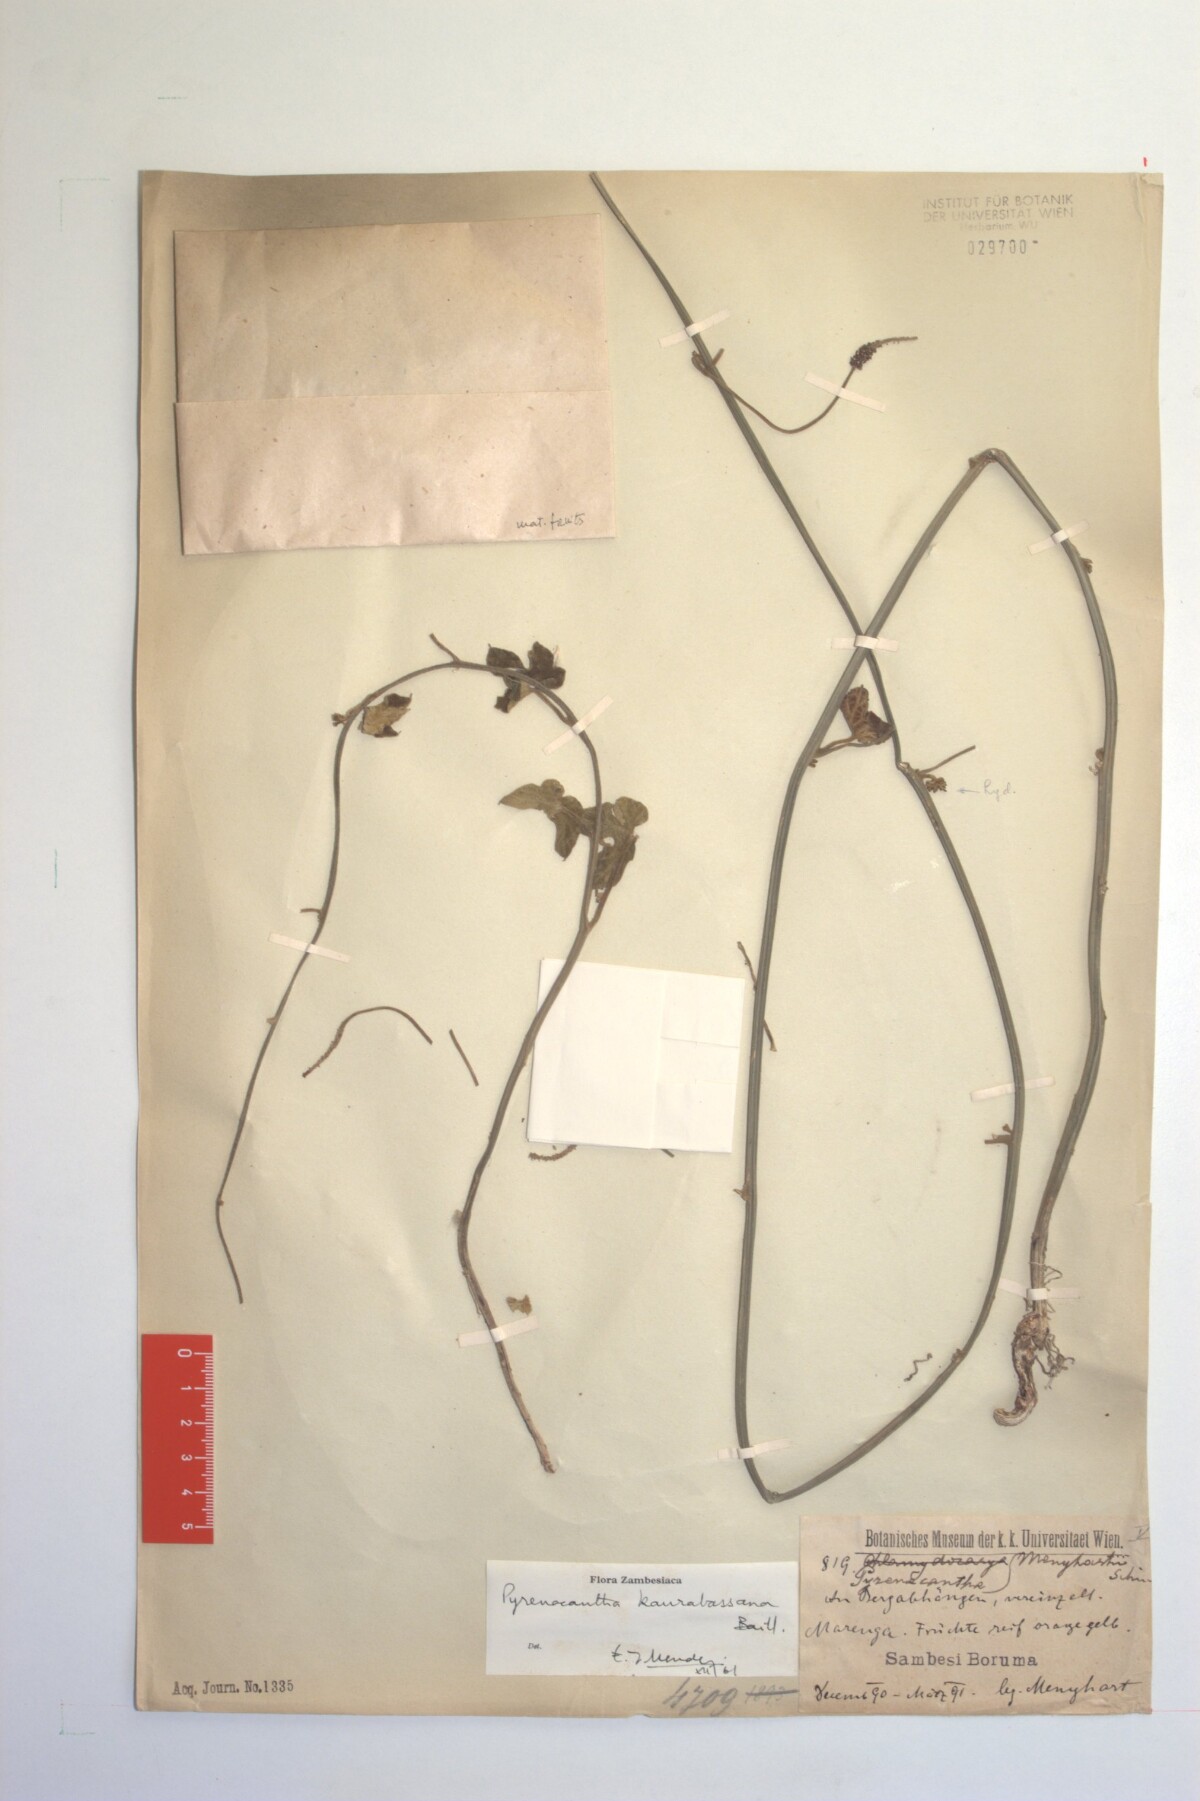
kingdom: Plantae
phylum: Tracheophyta
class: Magnoliopsida
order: Icacinales
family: Icacinaceae
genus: Pyrenacantha
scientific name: Pyrenacantha kaurabassana
